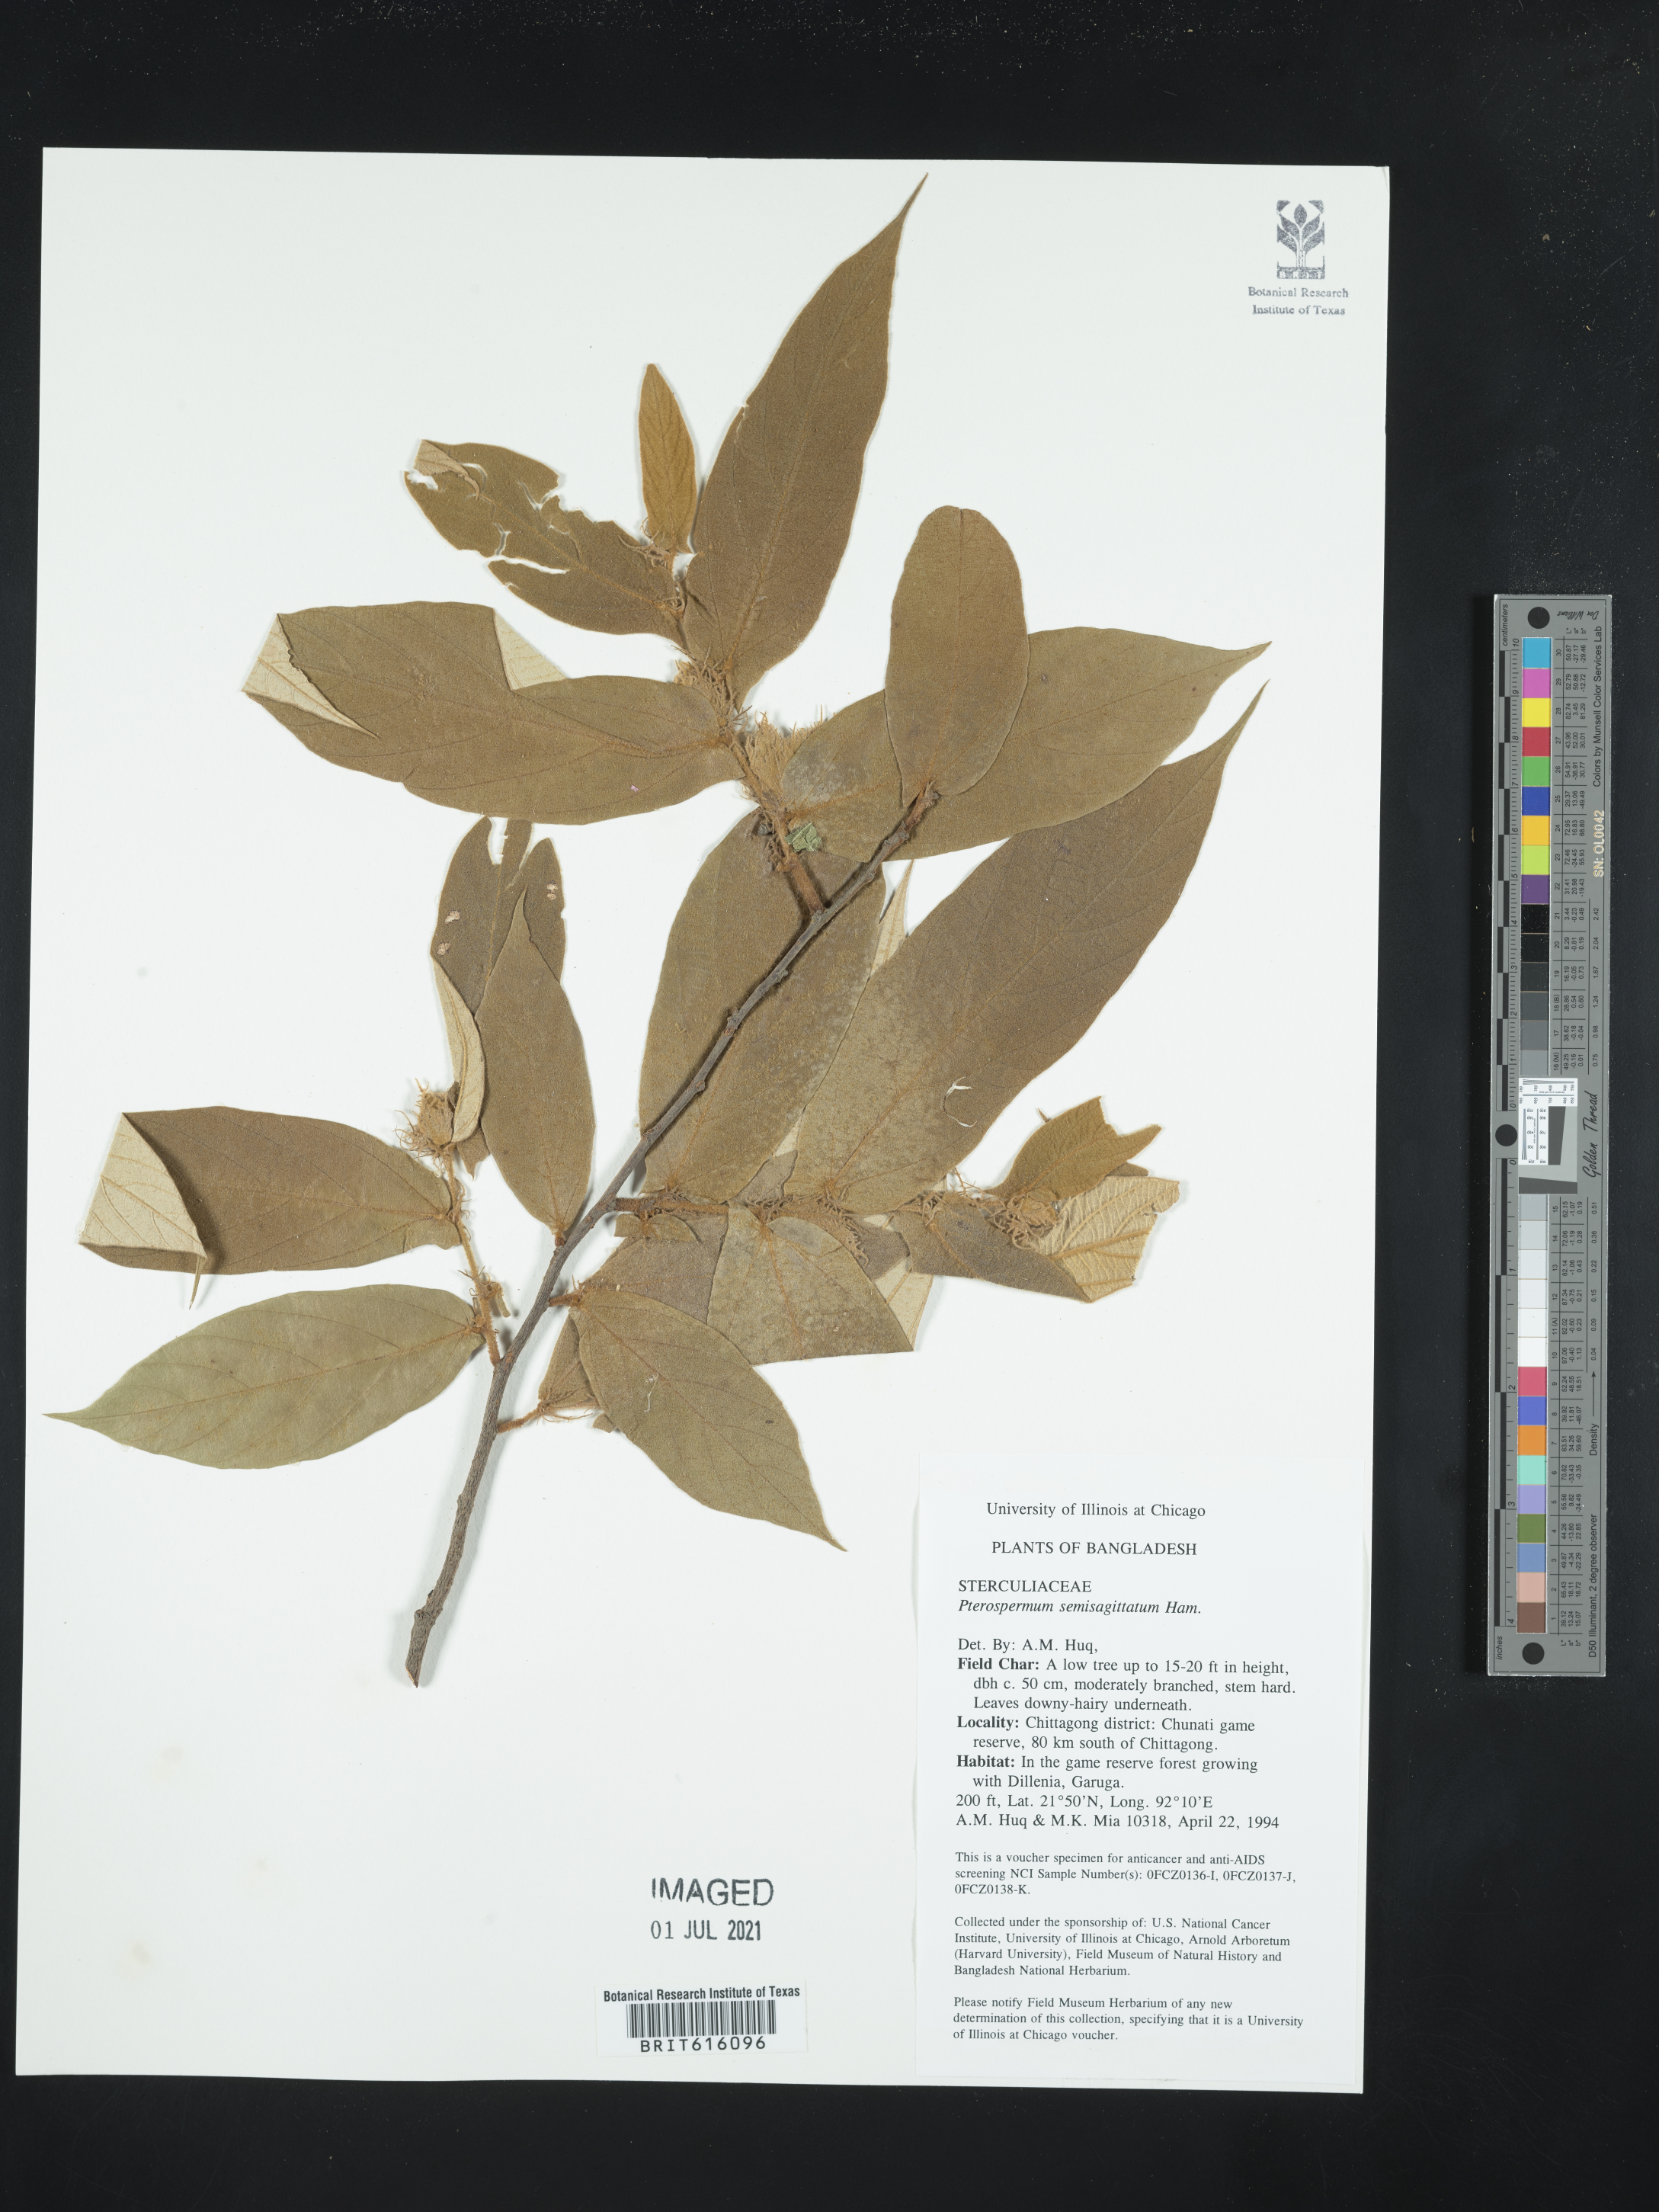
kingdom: Plantae
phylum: Tracheophyta
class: Magnoliopsida
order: Malvales
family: Malvaceae
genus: Pterospermum
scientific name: Pterospermum semisagittatum
